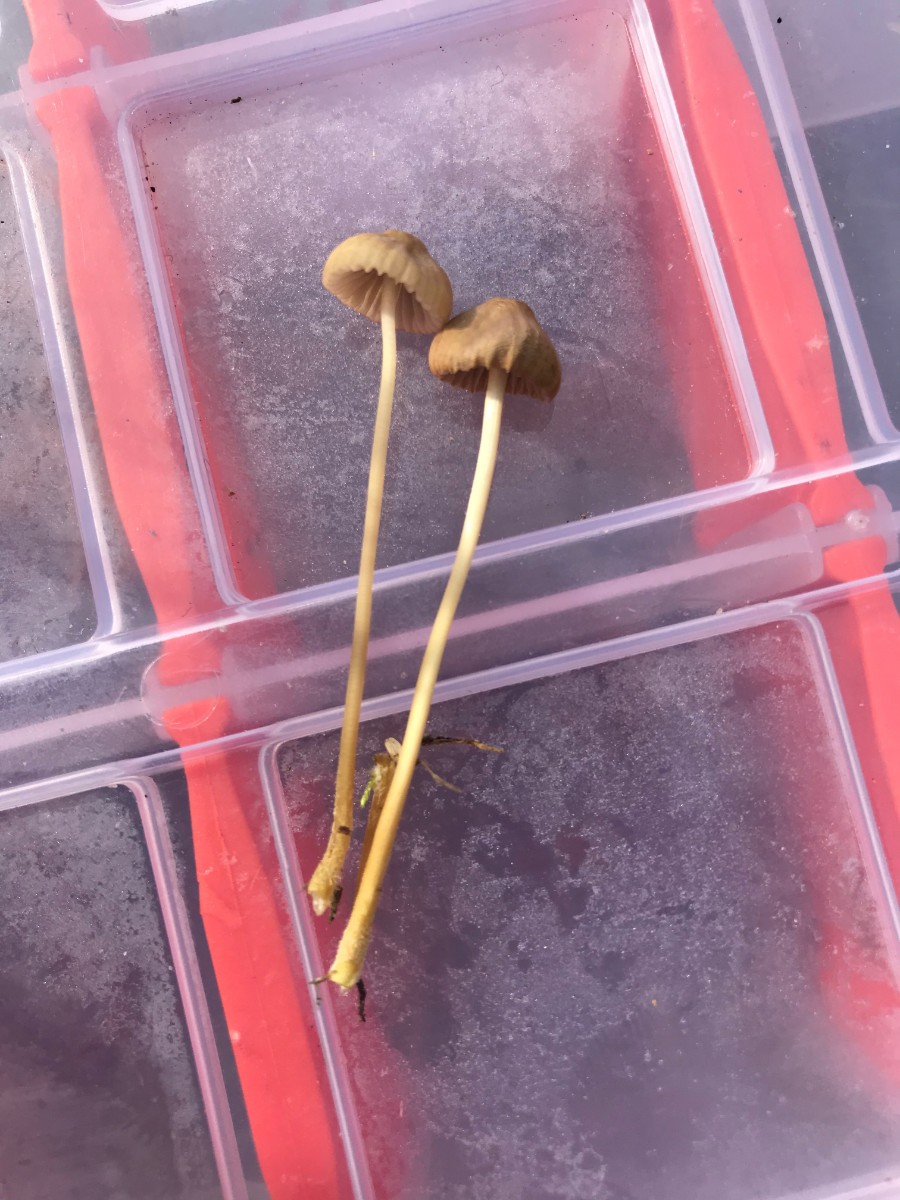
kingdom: Fungi
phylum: Basidiomycota
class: Agaricomycetes
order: Agaricales
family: Mycenaceae
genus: Mycena
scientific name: Mycena olivaceomarginata
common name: brunægget huesvamp
